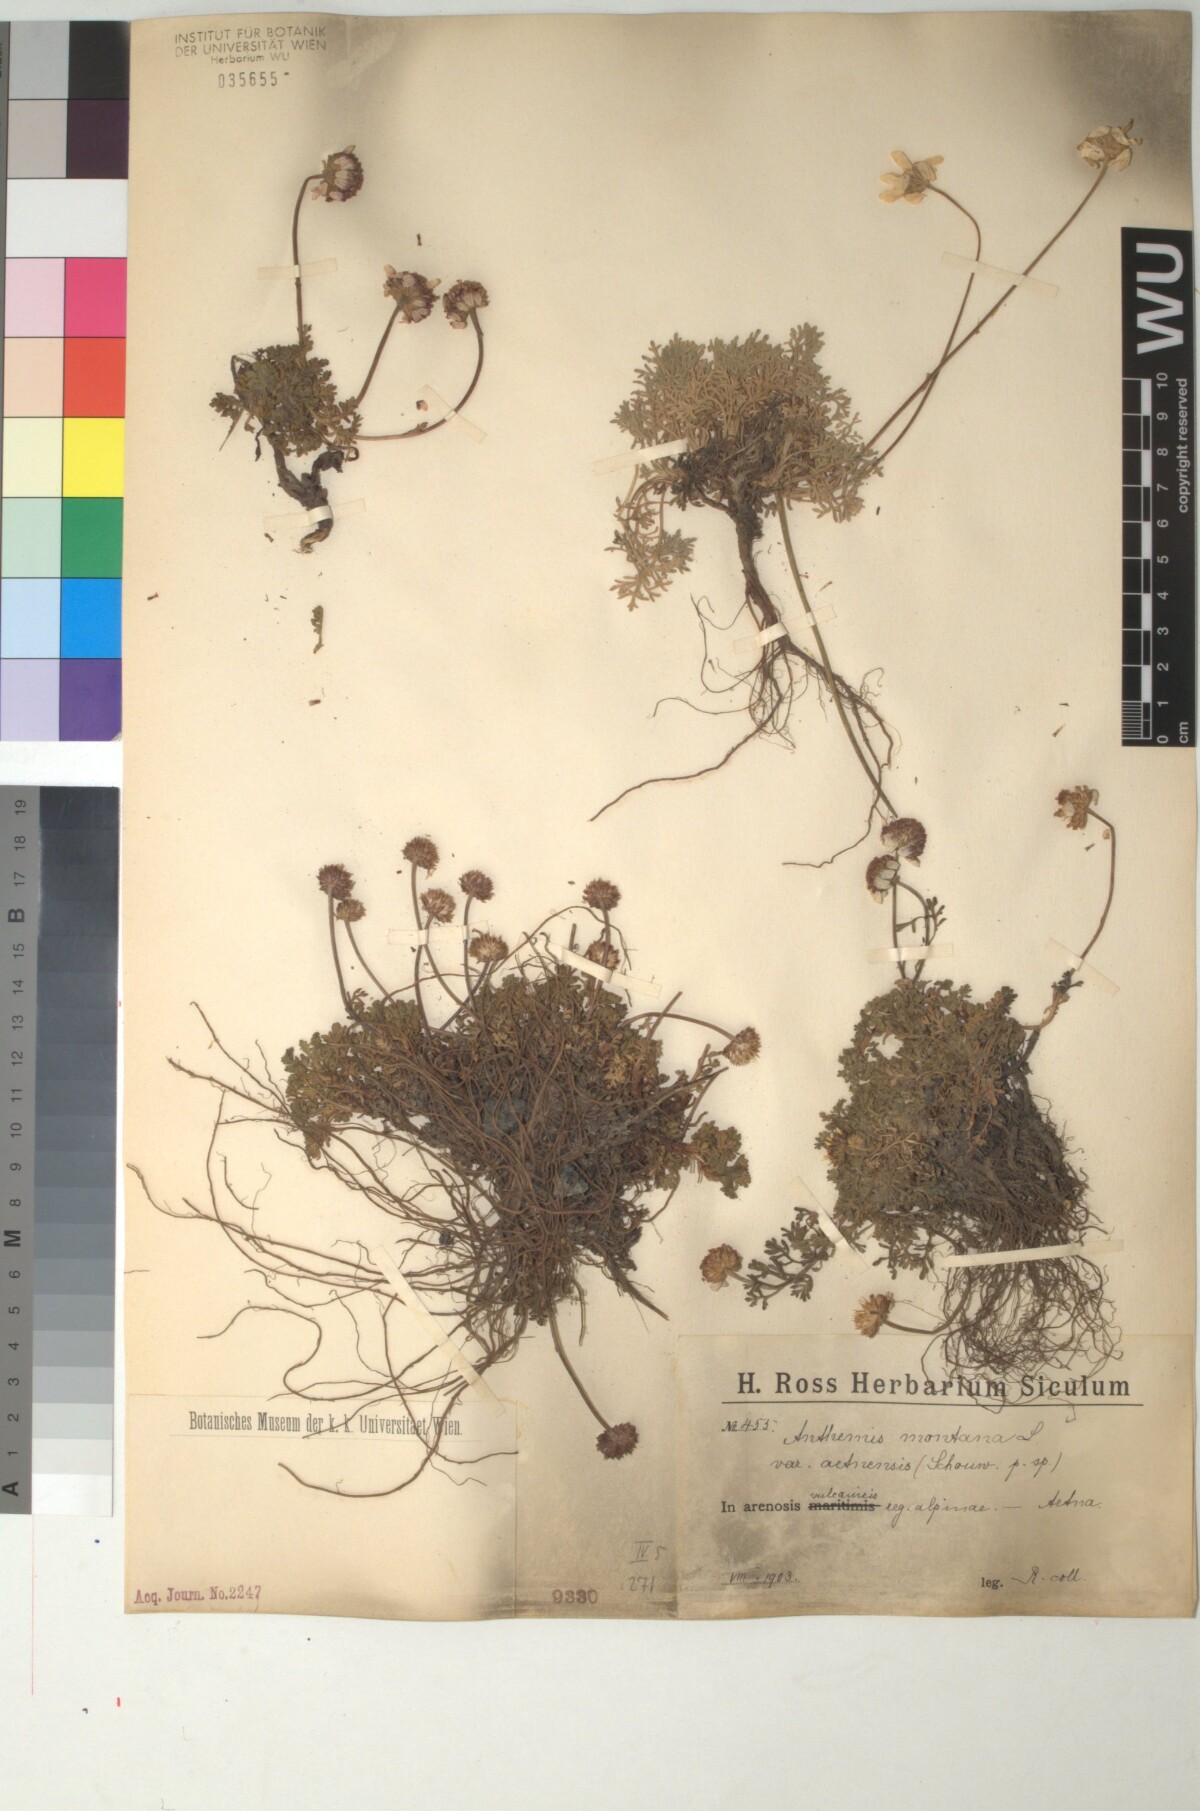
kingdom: Plantae
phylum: Tracheophyta
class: Magnoliopsida
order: Asterales
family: Asteraceae
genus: Anthemis
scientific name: Anthemis aetnensis
